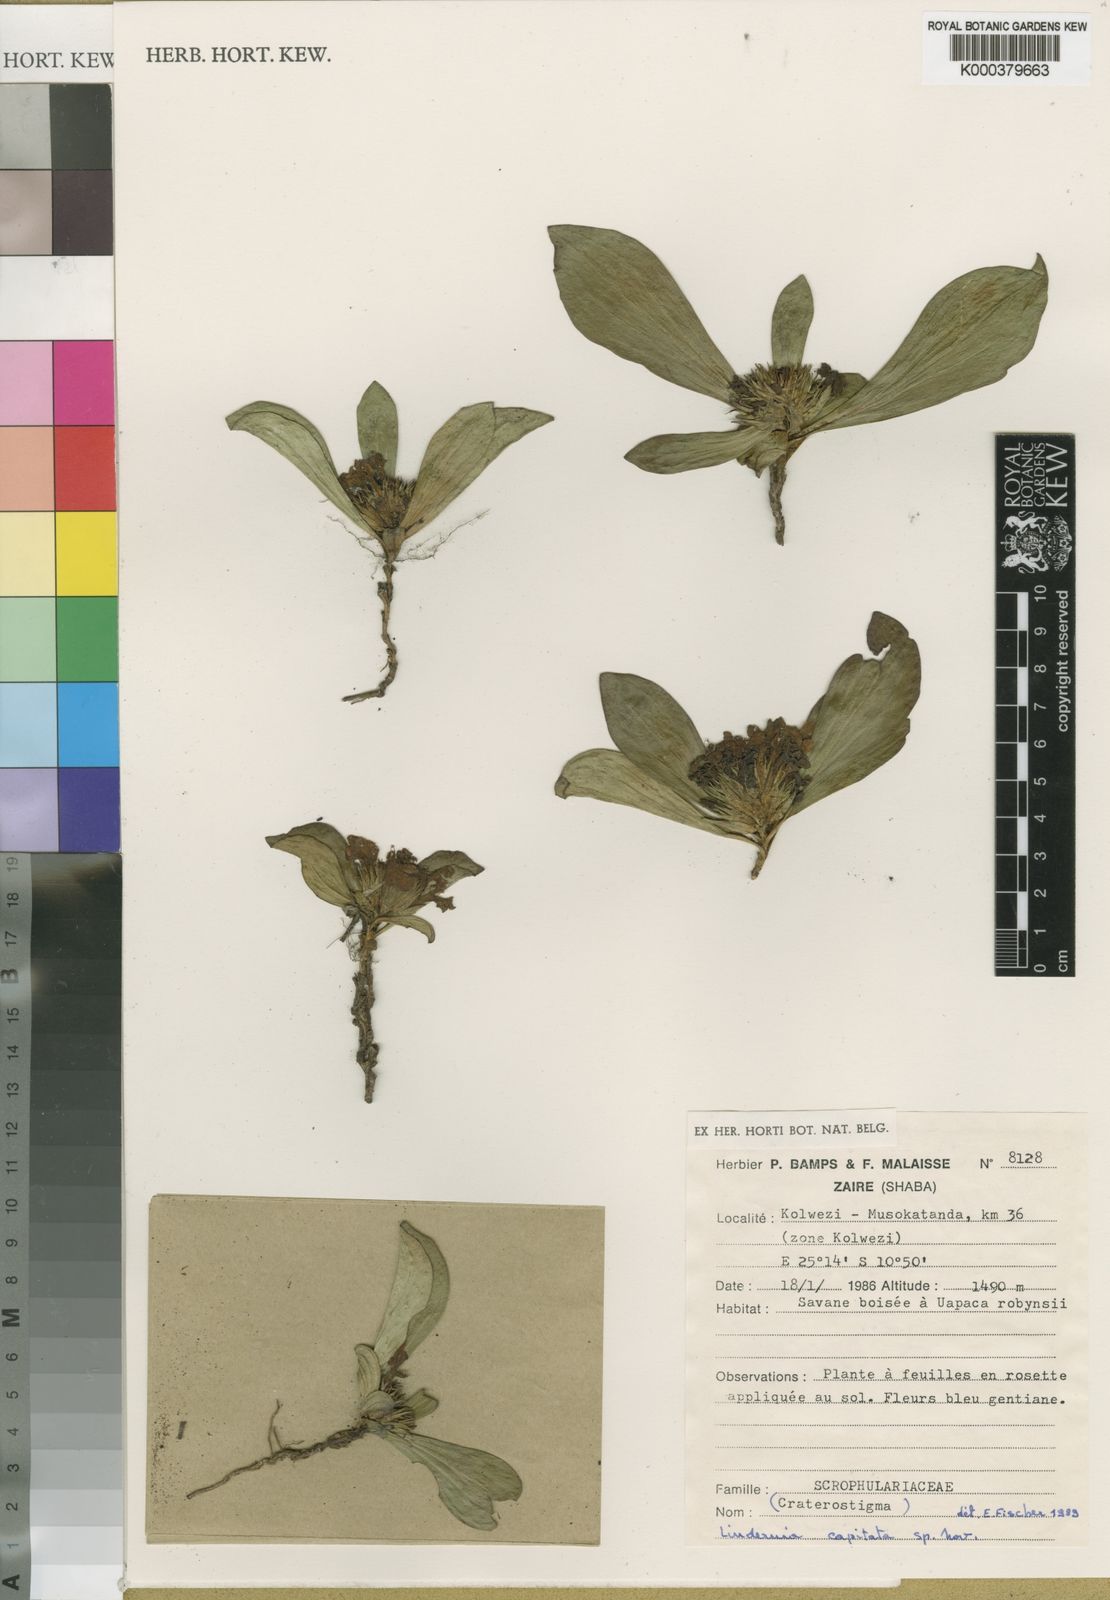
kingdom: Plantae
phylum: Tracheophyta
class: Magnoliopsida
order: Lamiales
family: Linderniaceae
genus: Hartliella
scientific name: Hartliella capitata
